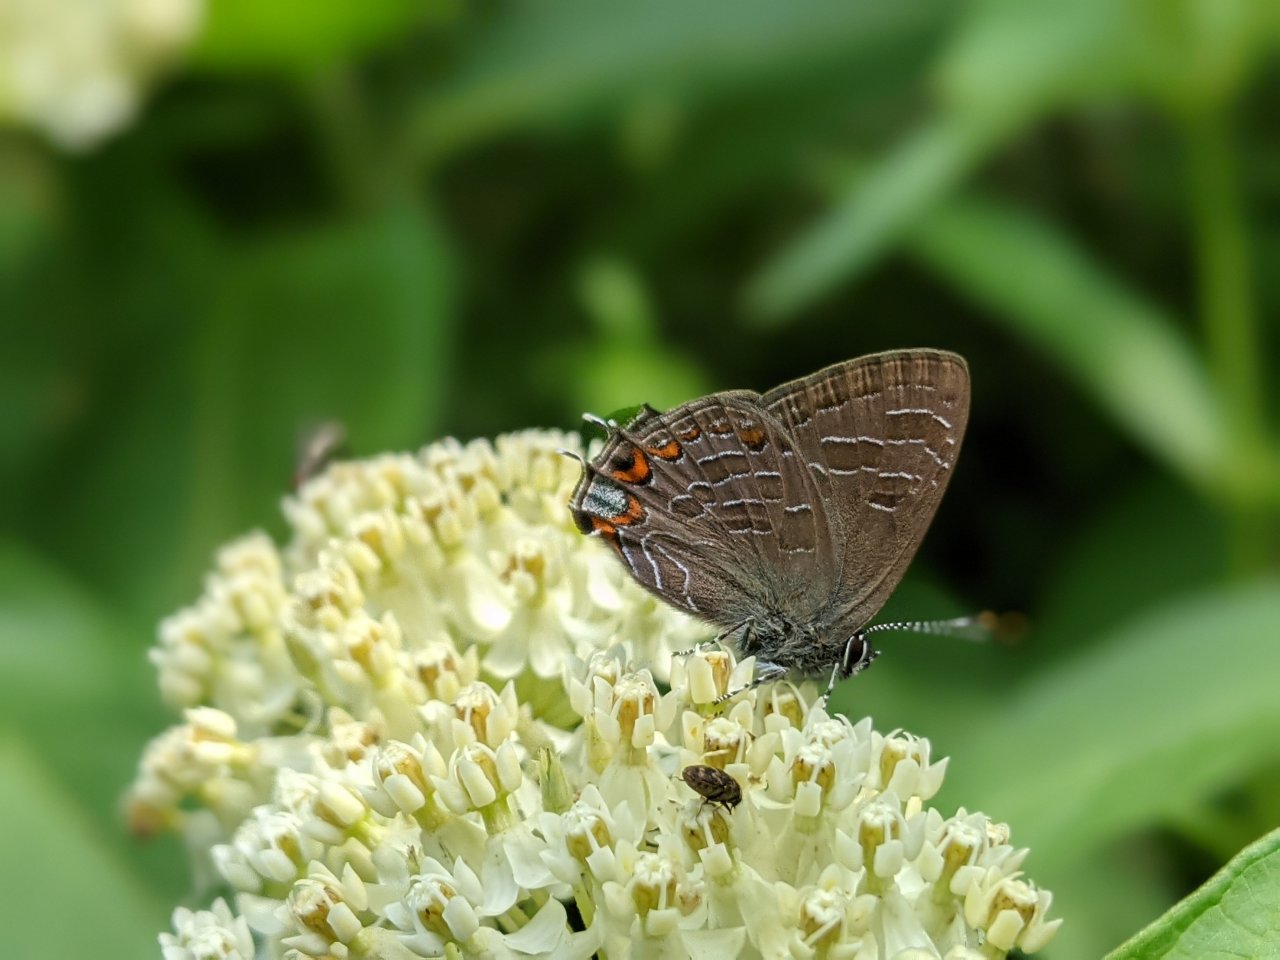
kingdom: Animalia
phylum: Arthropoda
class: Insecta
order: Lepidoptera
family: Lycaenidae
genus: Satyrium
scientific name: Satyrium liparops
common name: Striped Hairstreak
